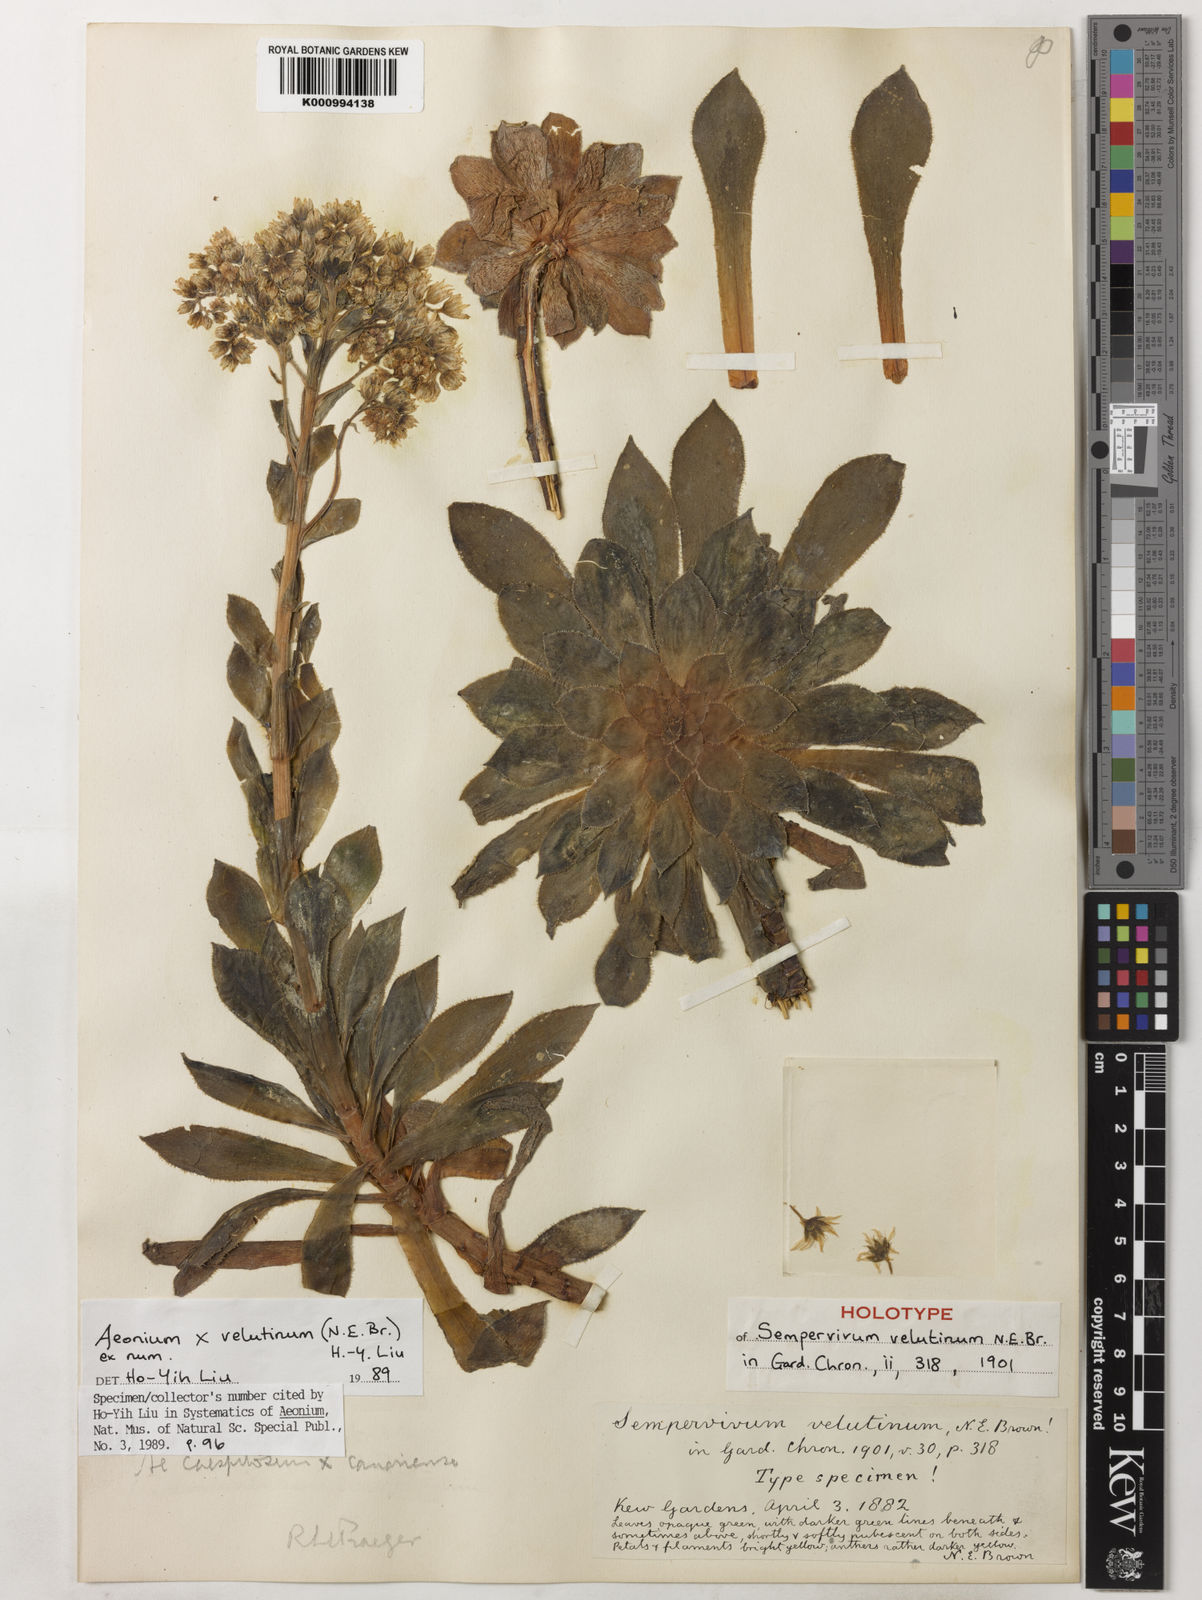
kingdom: Plantae
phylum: Tracheophyta
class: Magnoliopsida
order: Saxifragales
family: Crassulaceae
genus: Aeonium
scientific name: Aeonium
